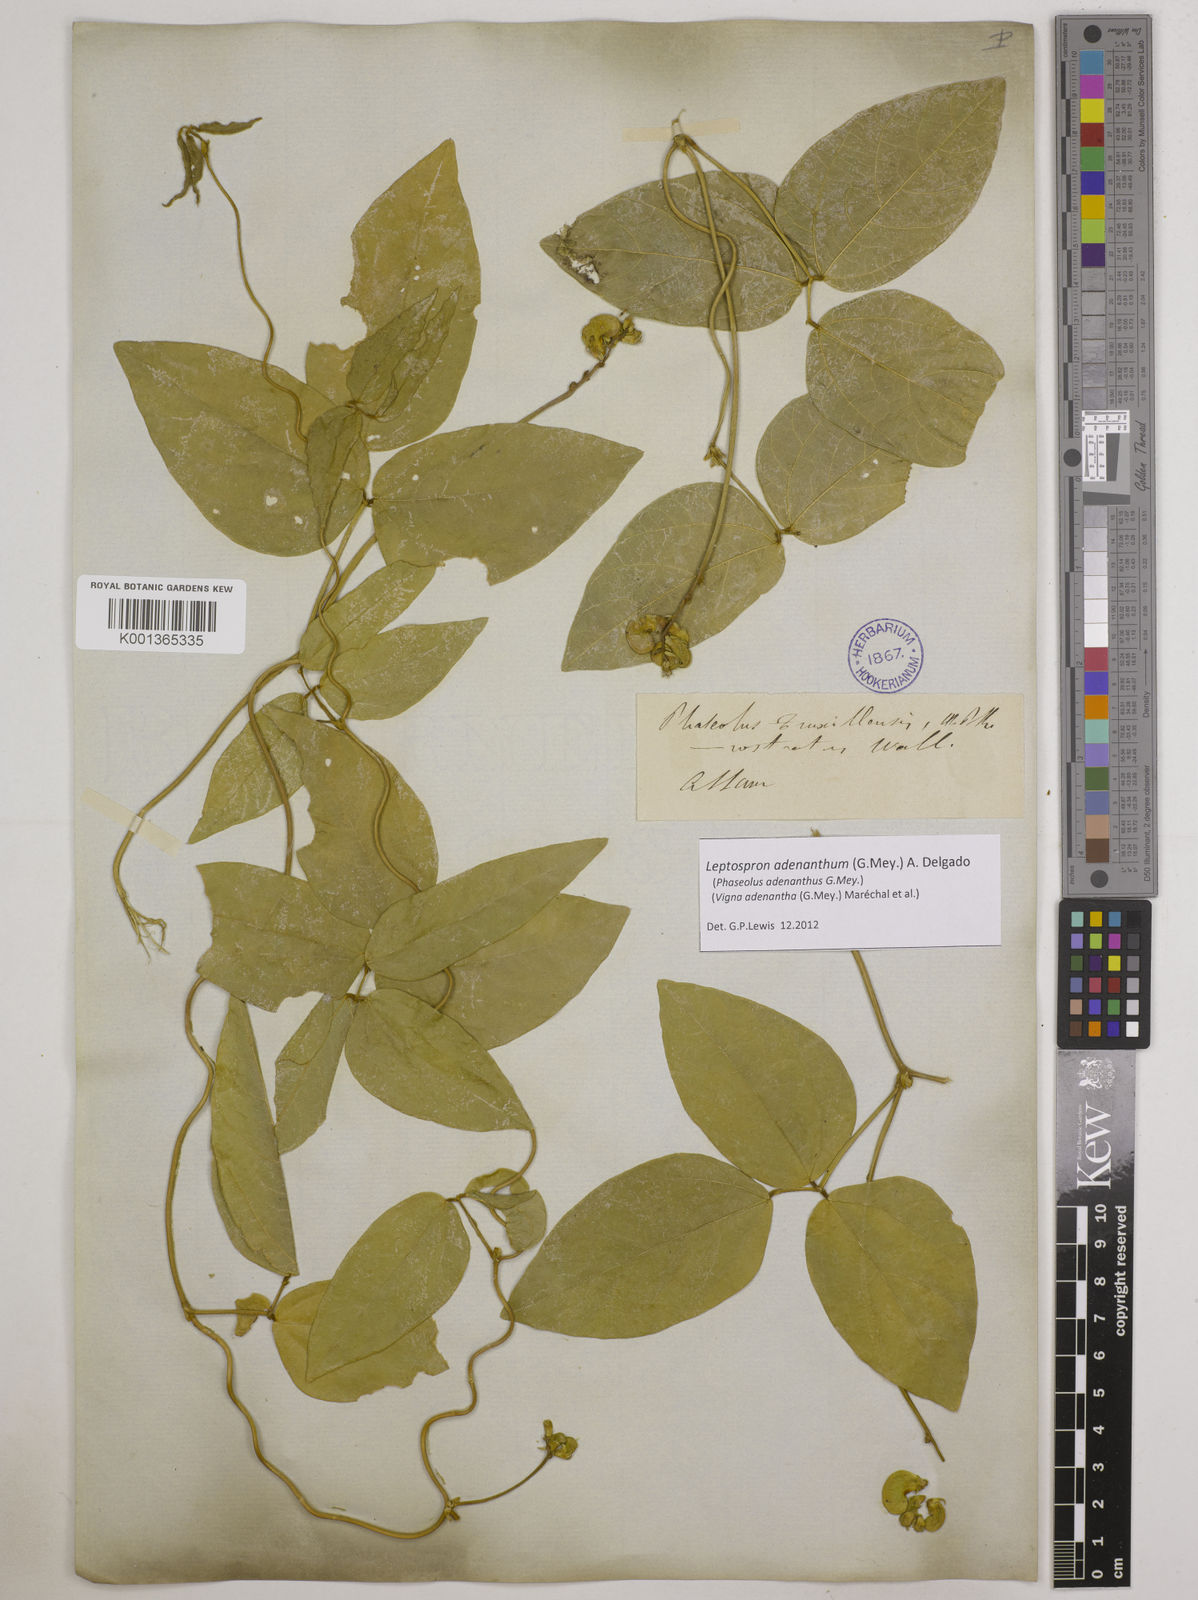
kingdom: Plantae
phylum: Tracheophyta
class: Magnoliopsida
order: Fabales
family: Fabaceae
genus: Leptospron
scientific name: Leptospron adenanthum
